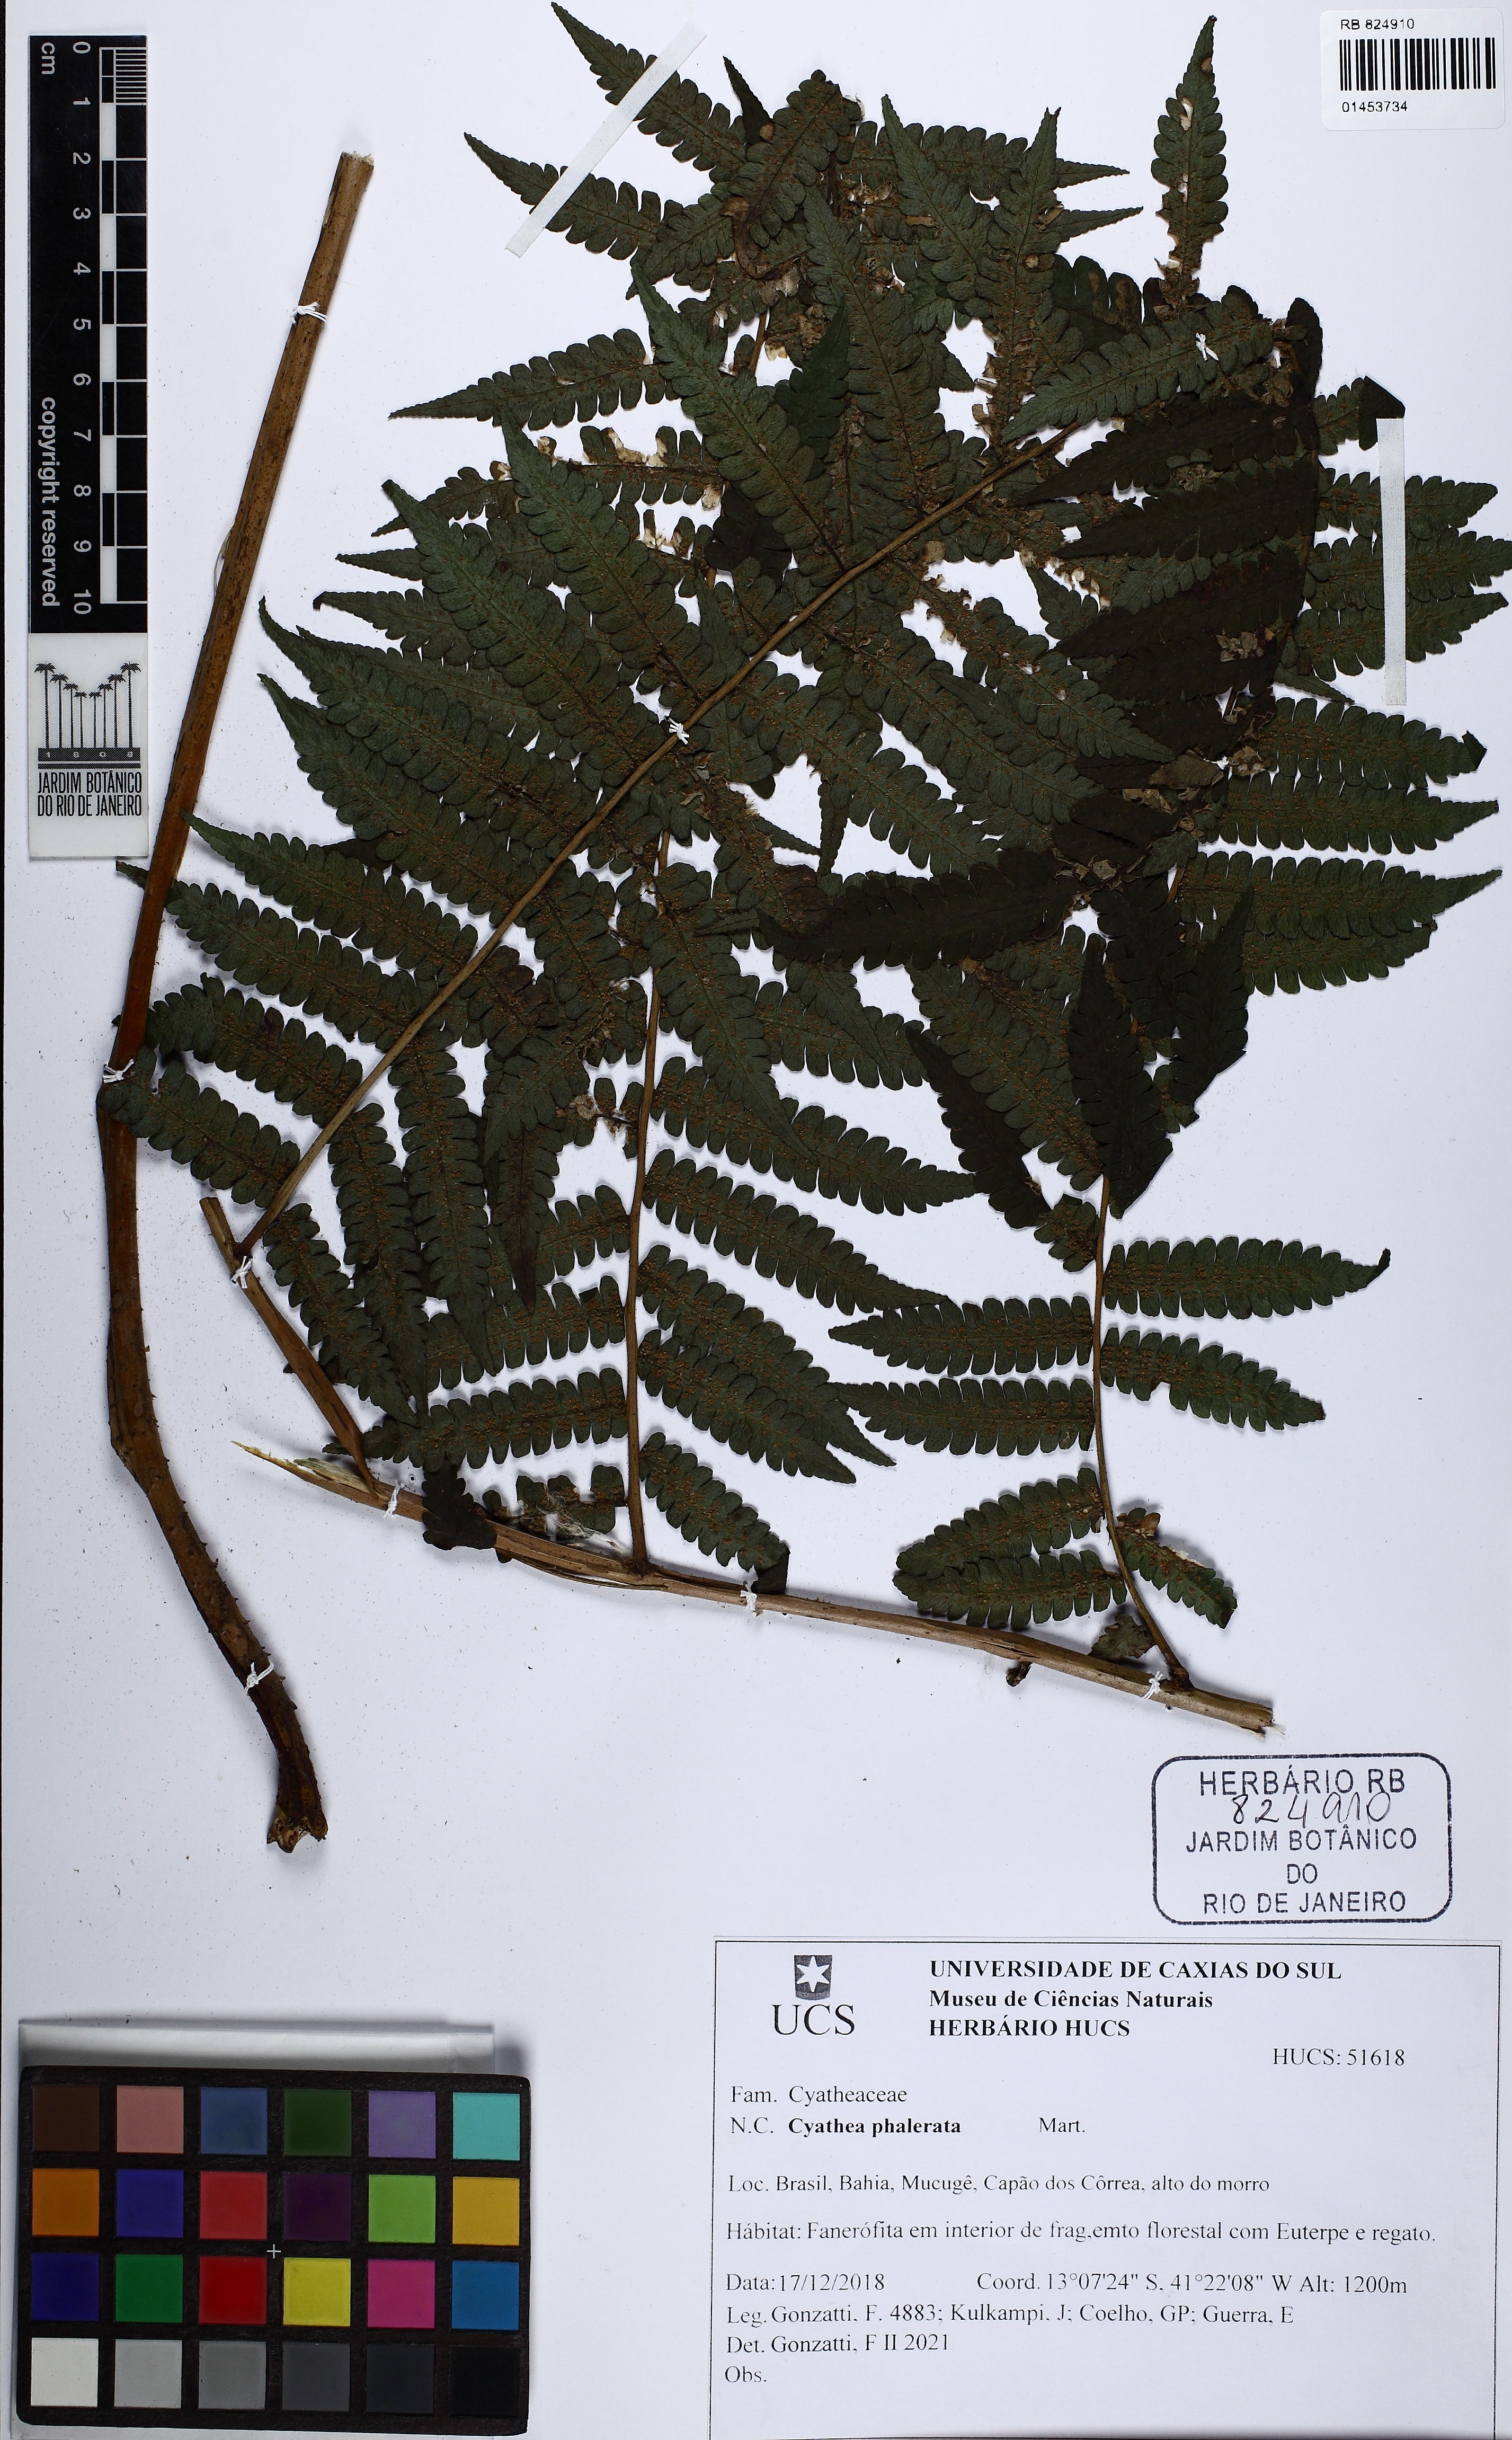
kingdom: Plantae
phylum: Tracheophyta
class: Polypodiopsida
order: Cyatheales
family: Cyatheaceae
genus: Cyathea
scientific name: Cyathea phalerata
